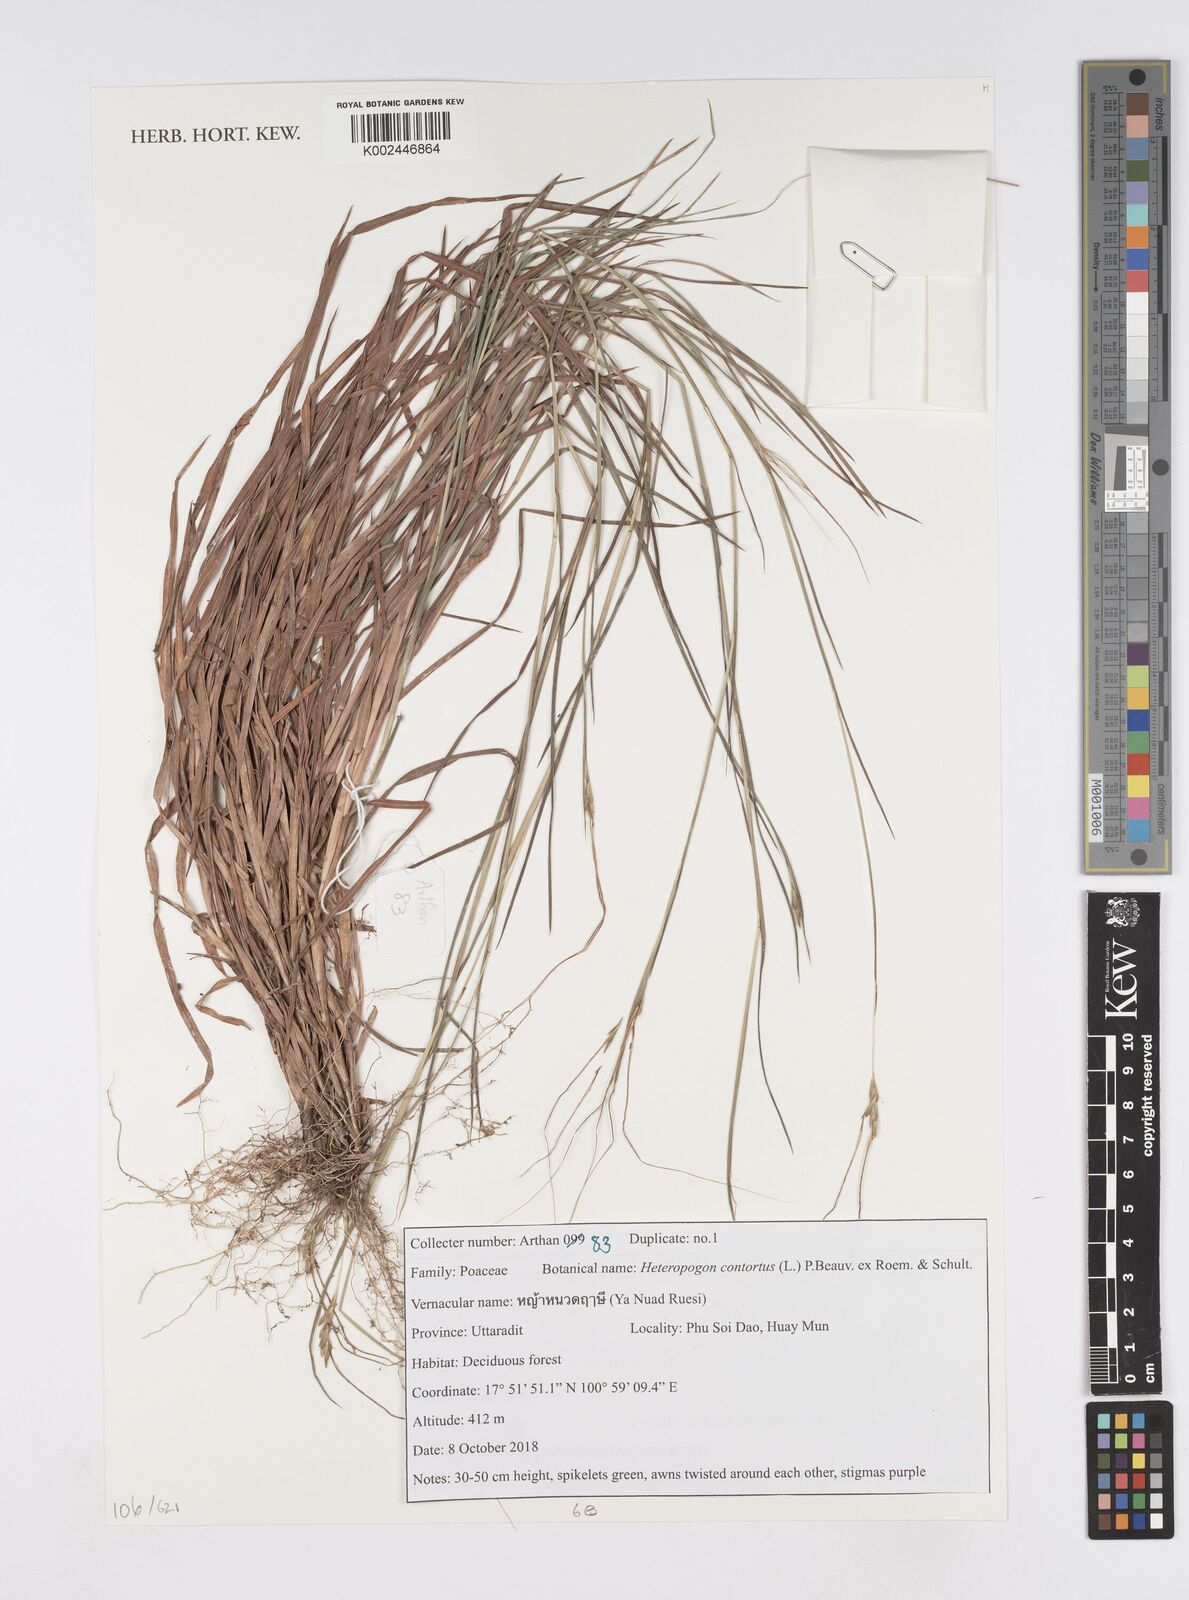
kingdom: Plantae
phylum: Tracheophyta
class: Liliopsida
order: Poales
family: Poaceae
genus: Heteropogon
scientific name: Heteropogon contortus
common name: Tanglehead
